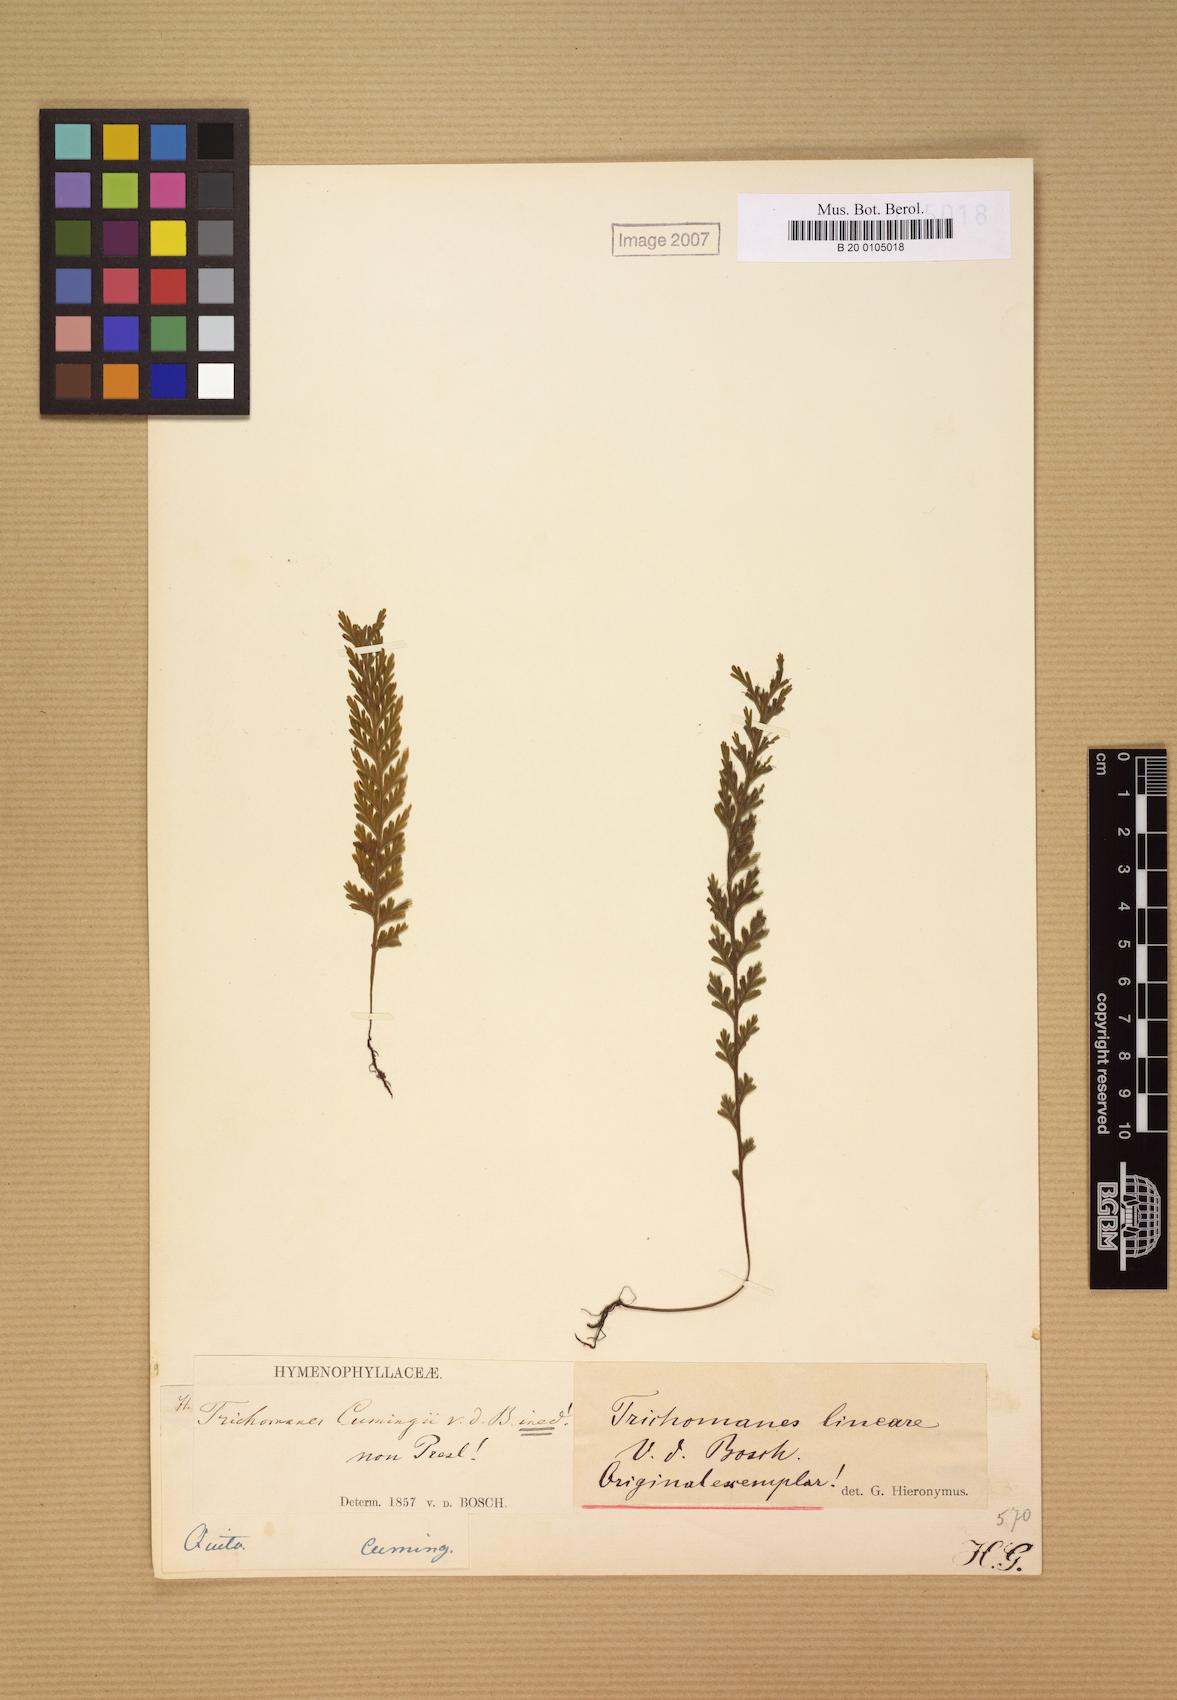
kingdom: Plantae
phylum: Tracheophyta
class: Polypodiopsida
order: Hymenophyllales
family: Hymenophyllaceae
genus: Trichomanes
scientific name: Trichomanes alatum
